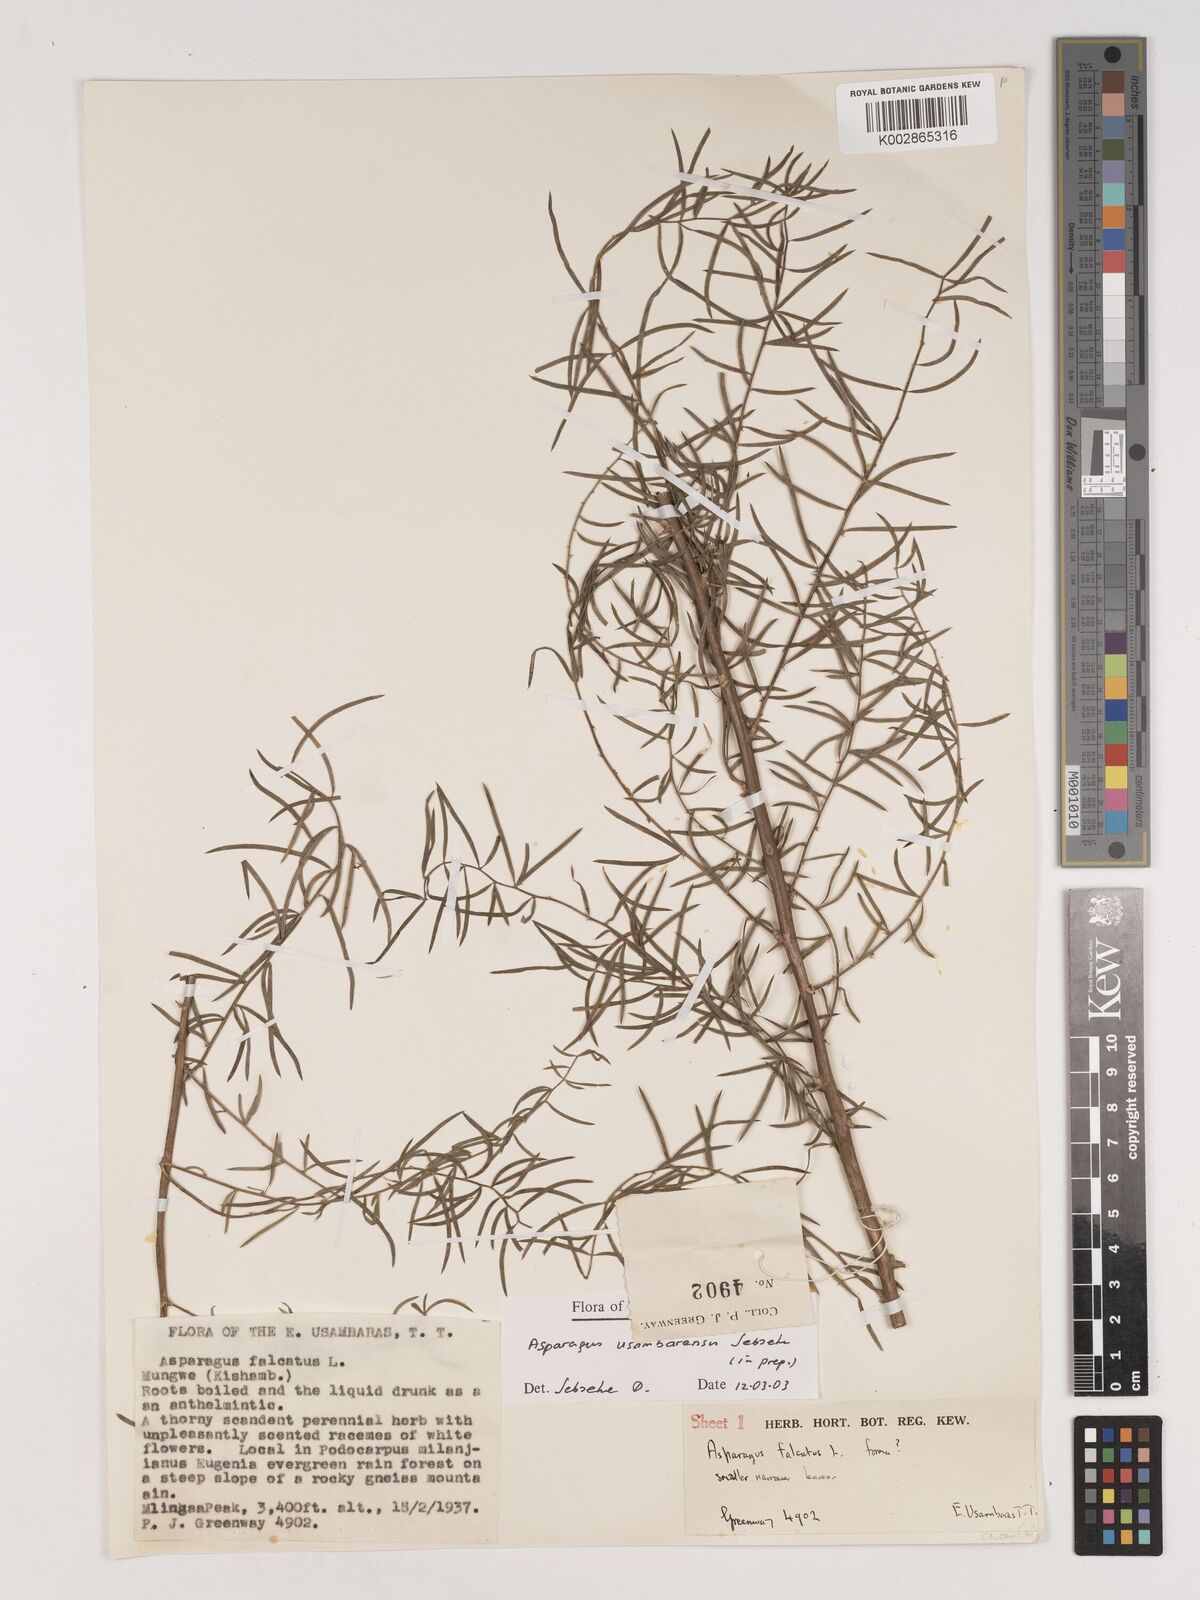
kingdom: Plantae
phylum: Tracheophyta
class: Liliopsida
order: Asparagales
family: Asparagaceae
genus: Asparagus
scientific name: Asparagus usambarensis
